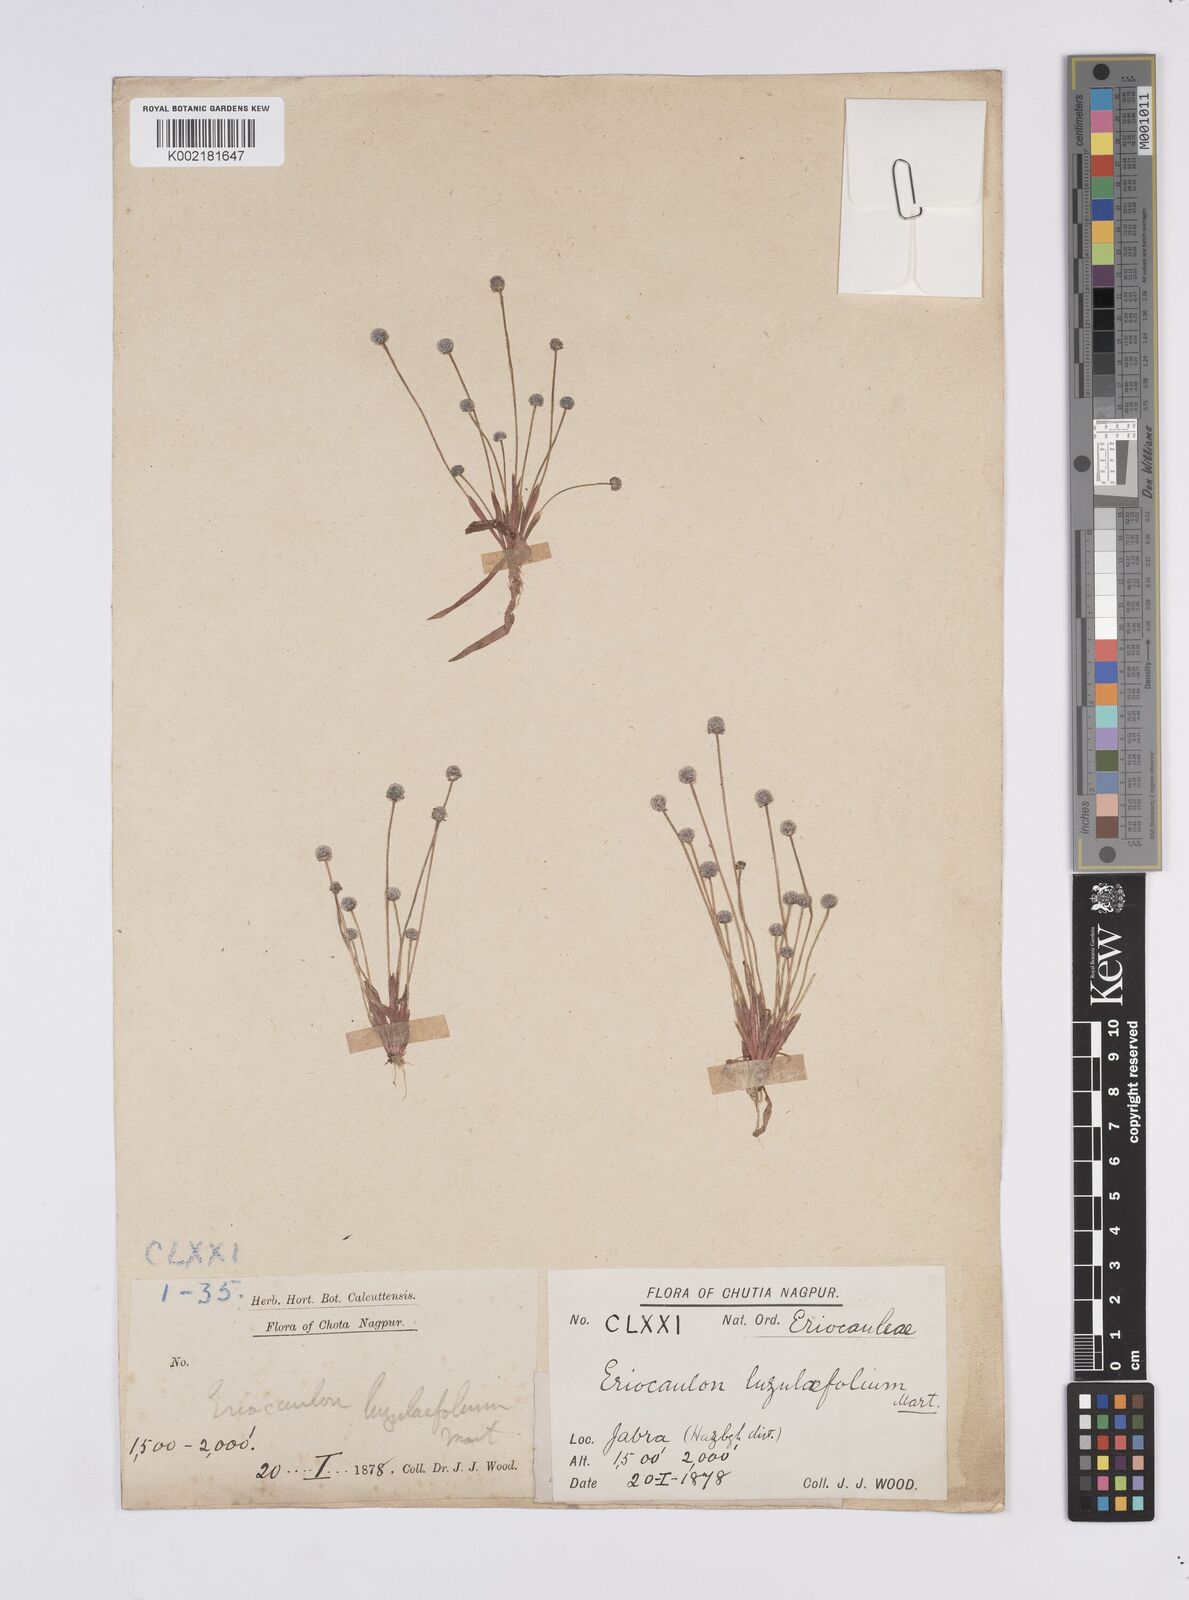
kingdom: Plantae
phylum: Tracheophyta
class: Liliopsida
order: Poales
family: Eriocaulaceae
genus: Eriocaulon
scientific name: Eriocaulon quinquangulare
